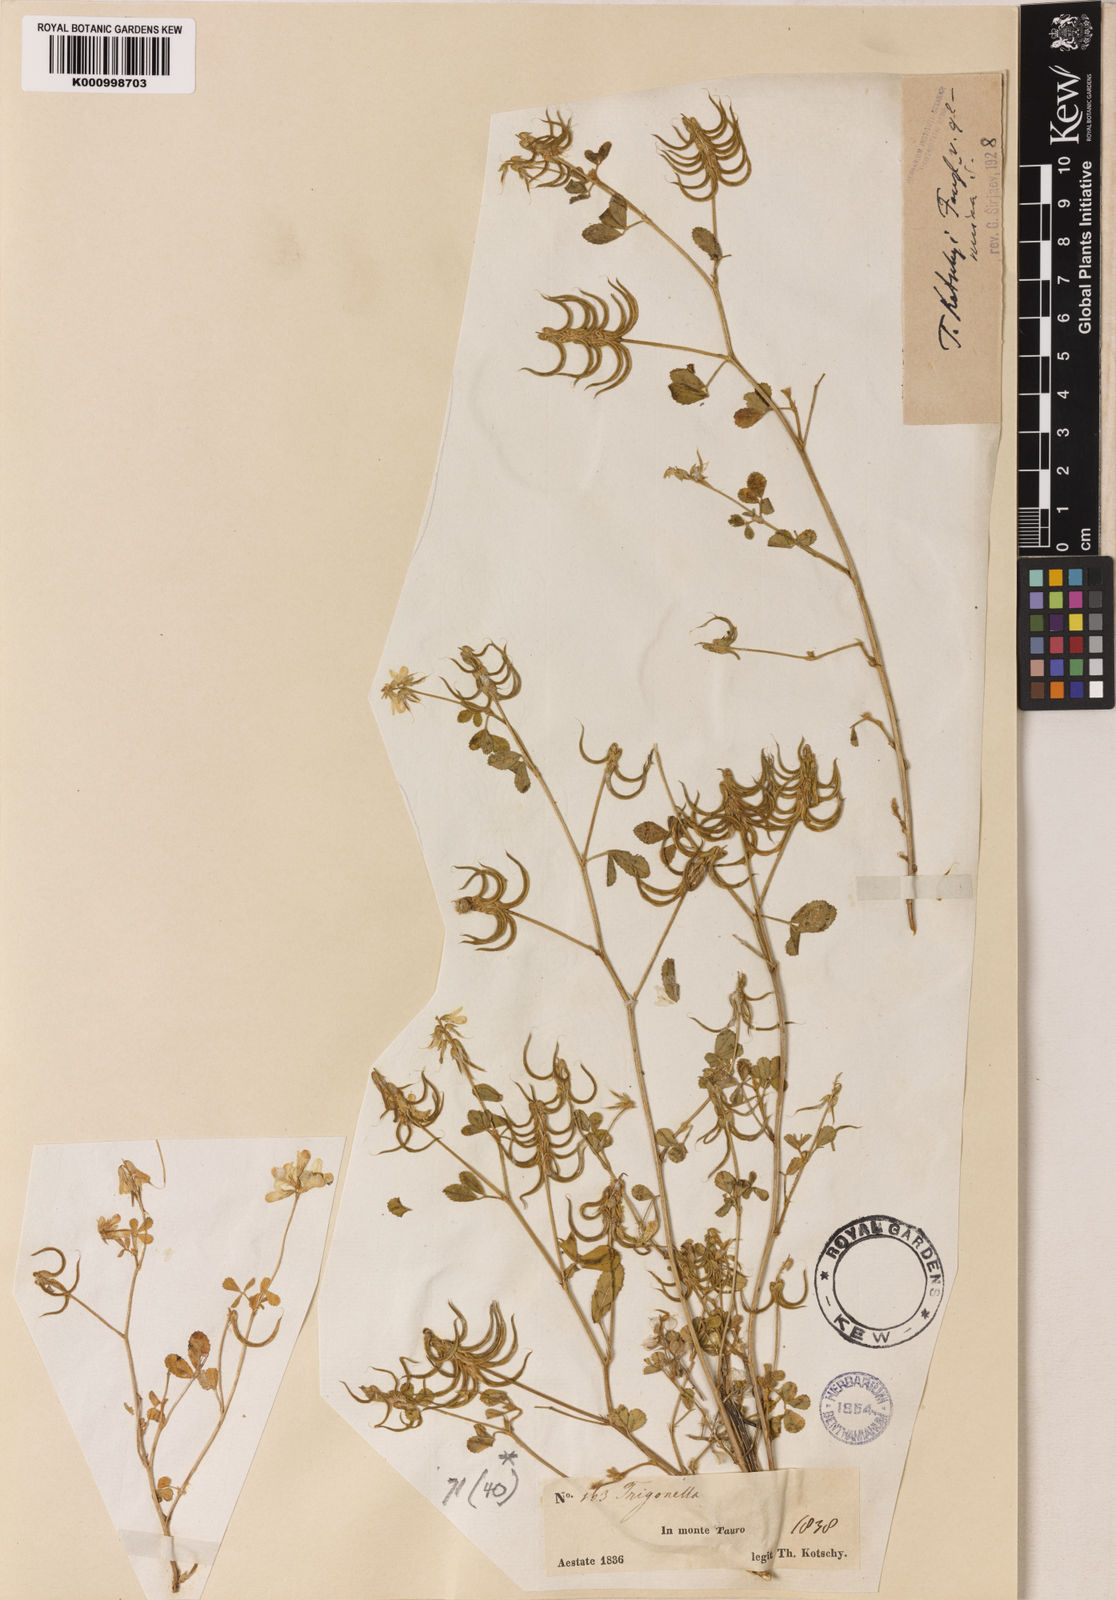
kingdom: Plantae
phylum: Tracheophyta
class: Magnoliopsida
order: Fabales
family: Fabaceae
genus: Trigonella
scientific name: Trigonella kotschyi
